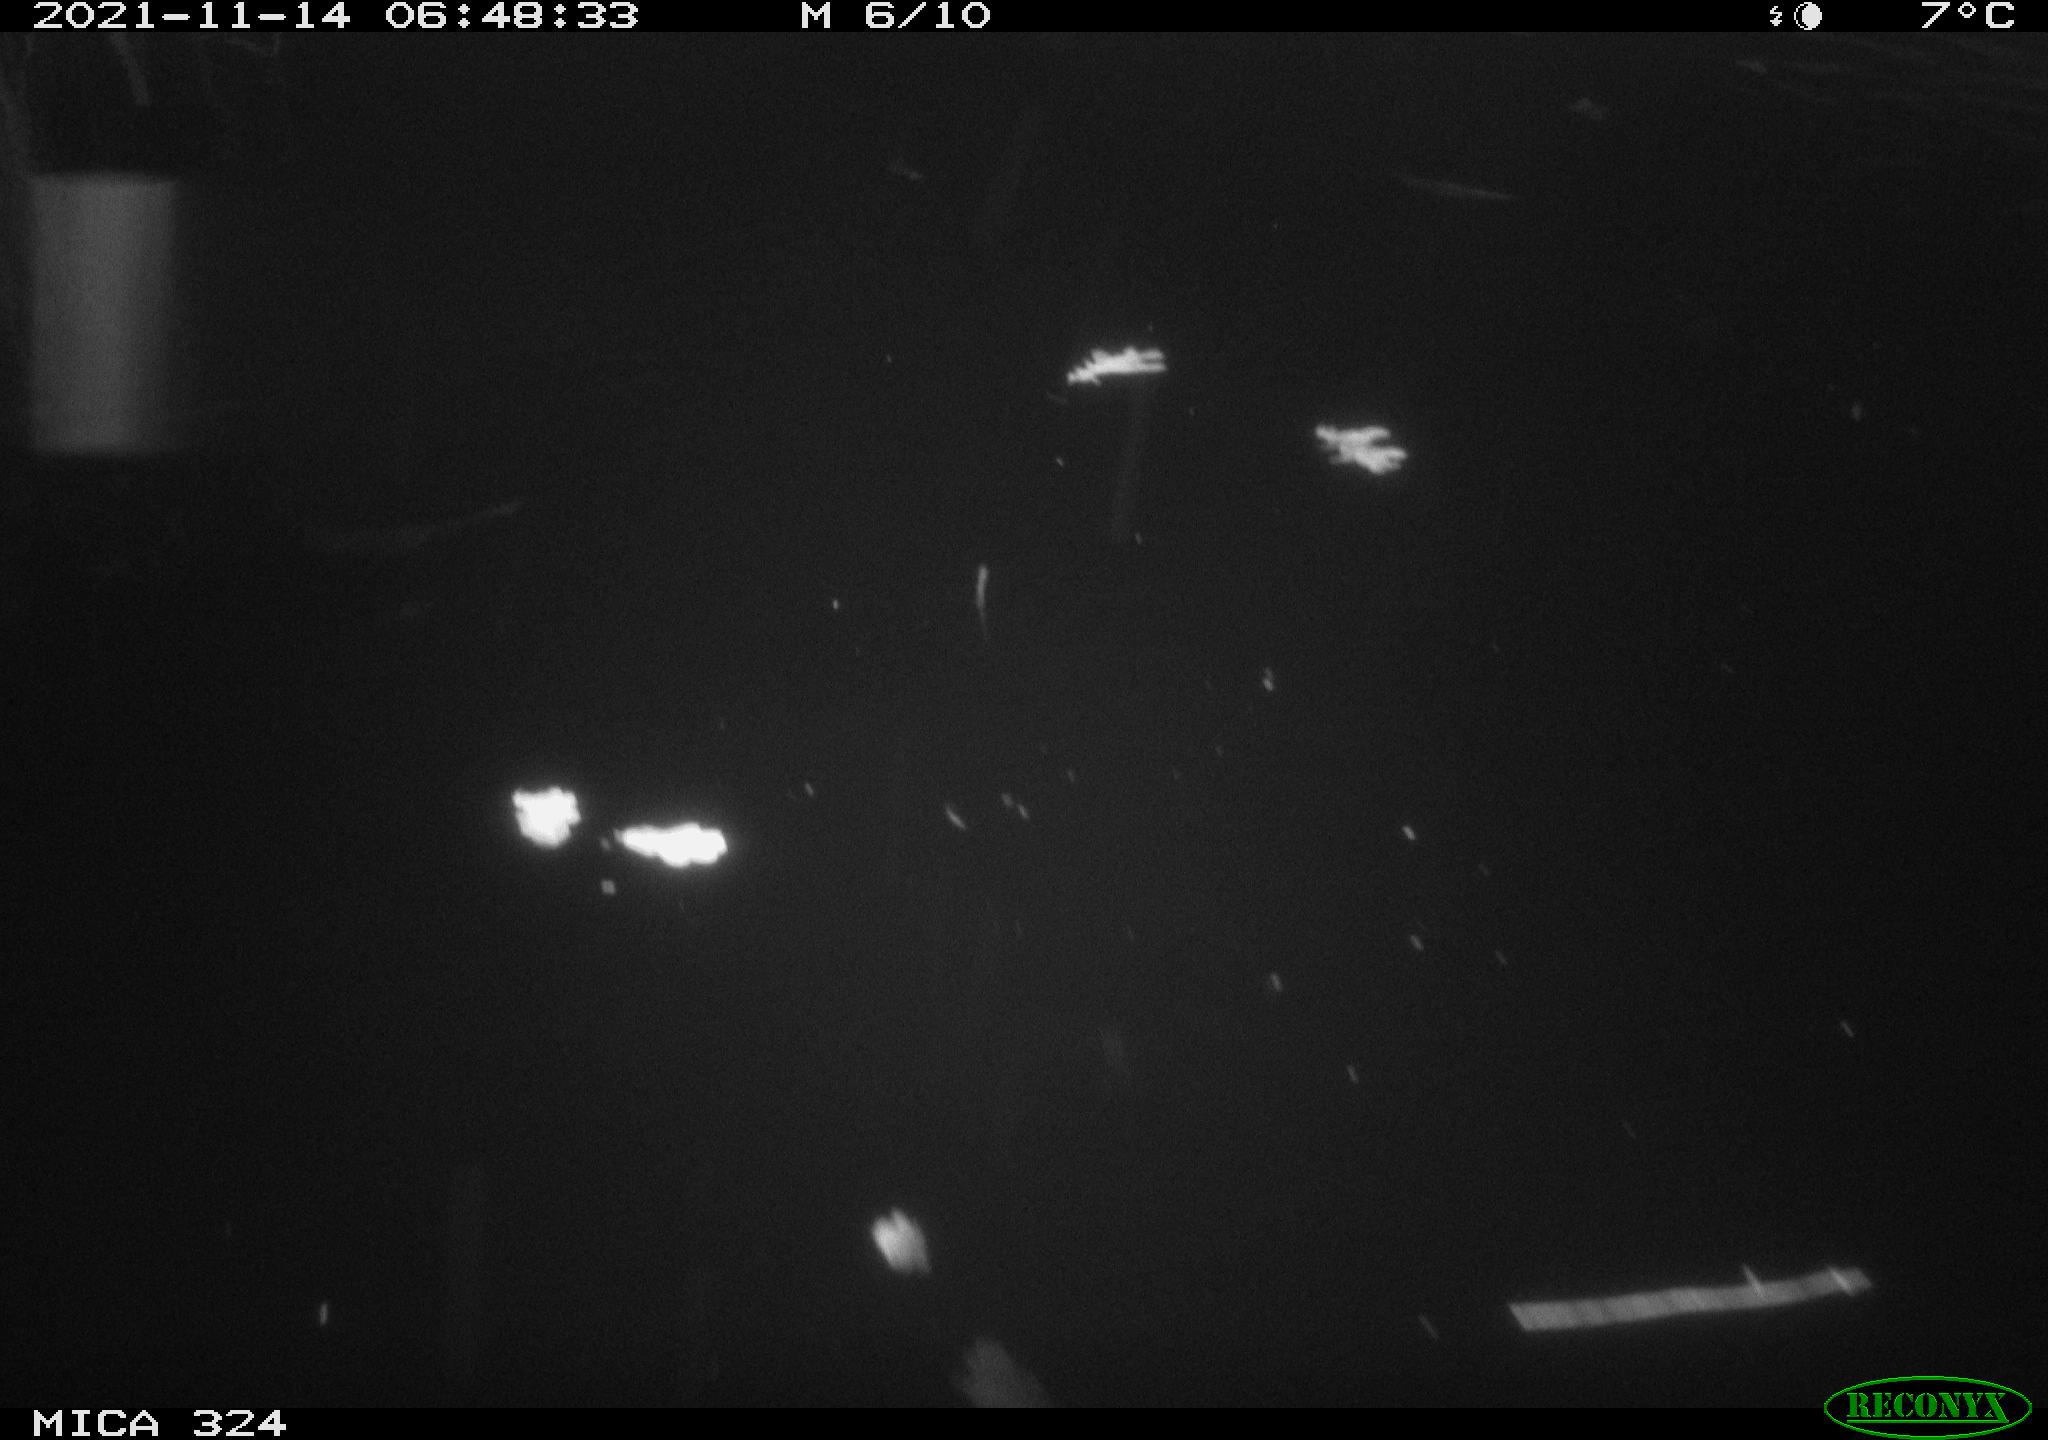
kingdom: Animalia
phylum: Chordata
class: Mammalia
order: Rodentia
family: Cricetidae
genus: Ondatra
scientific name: Ondatra zibethicus
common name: Muskrat
